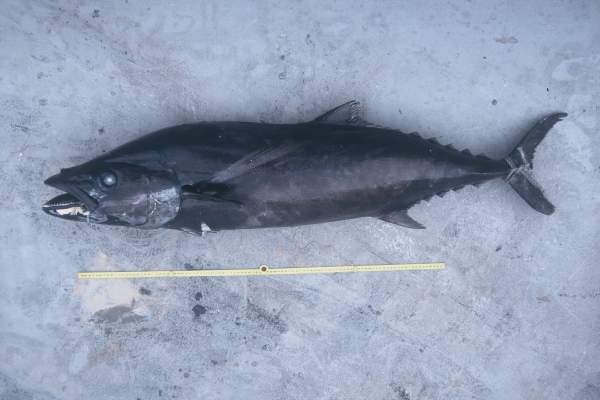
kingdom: Animalia
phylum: Chordata
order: Perciformes
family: Gempylidae
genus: Lepidocybium
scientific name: Lepidocybium flavobrunneum
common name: Escolar
